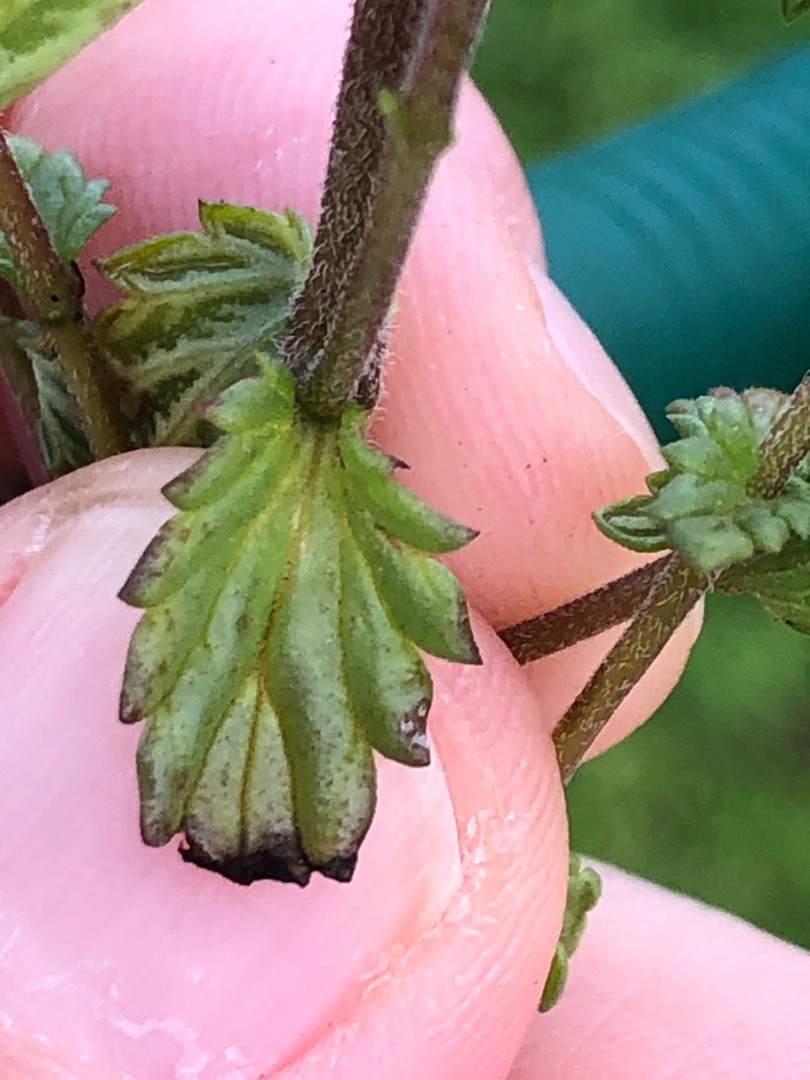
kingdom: Plantae
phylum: Tracheophyta
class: Magnoliopsida
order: Lamiales
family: Orobanchaceae
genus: Euphrasia
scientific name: Euphrasia stricta
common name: Spids øjentrøst
